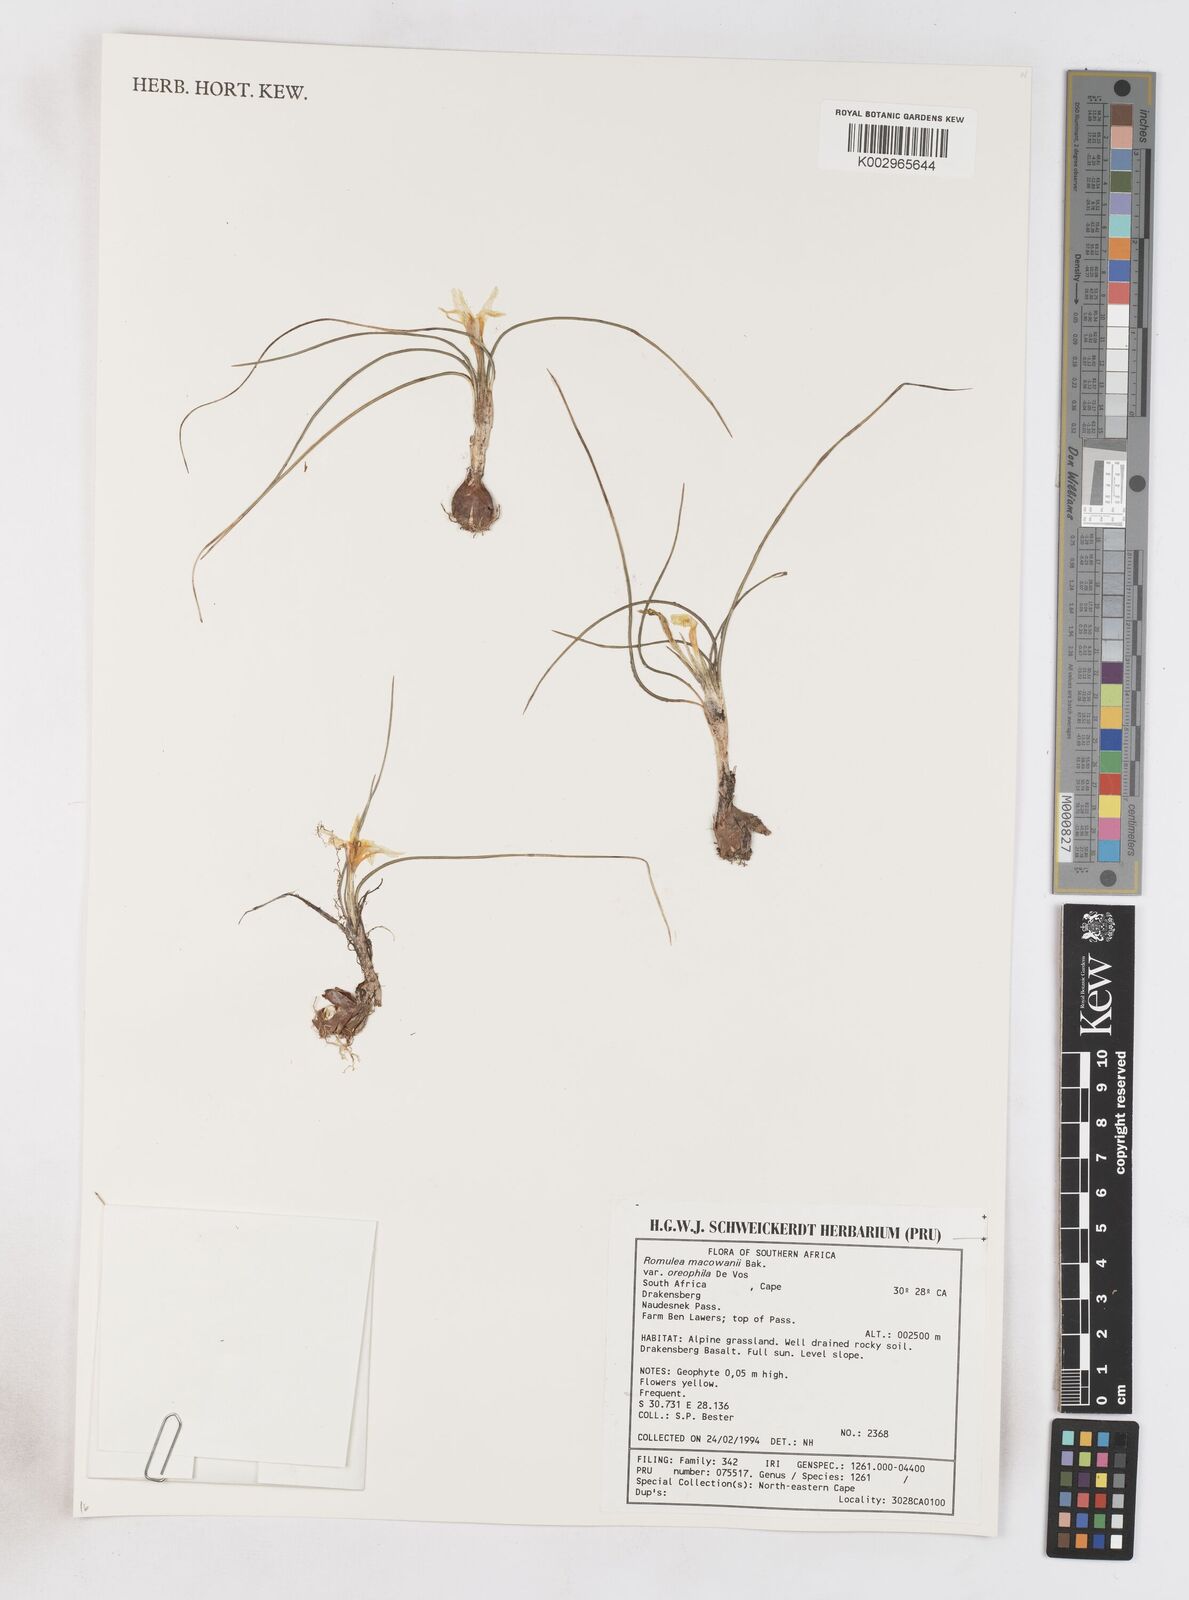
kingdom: Plantae
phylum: Tracheophyta
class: Liliopsida
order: Asparagales
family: Iridaceae
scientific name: Iridaceae
